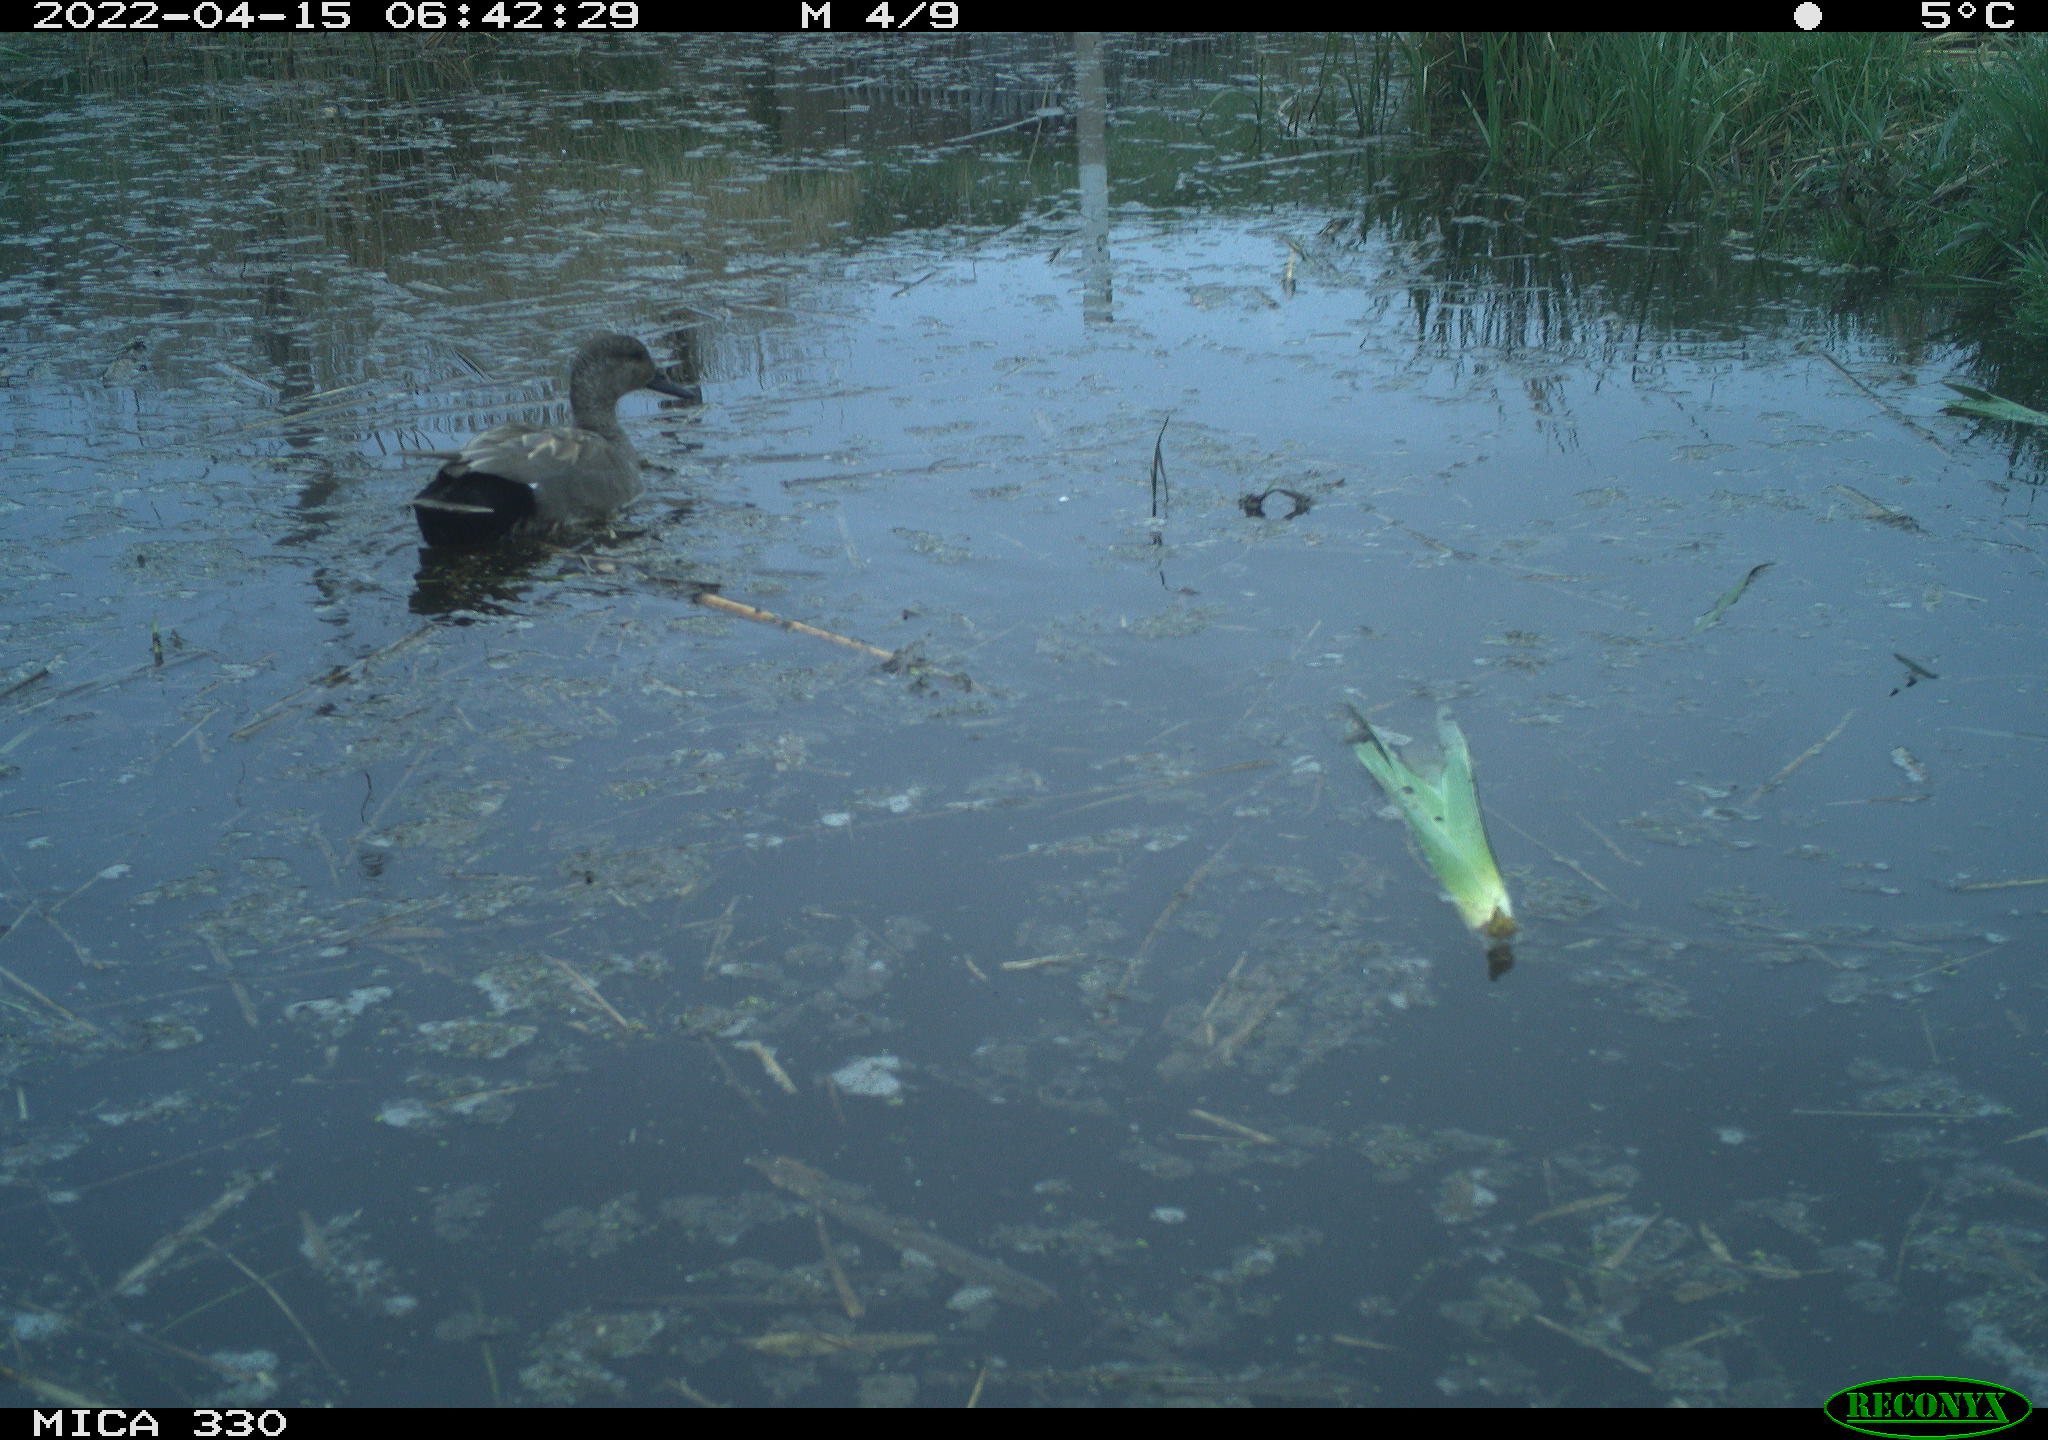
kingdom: Animalia
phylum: Chordata
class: Aves
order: Anseriformes
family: Anatidae
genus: Mareca
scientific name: Mareca strepera
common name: Gadwall
